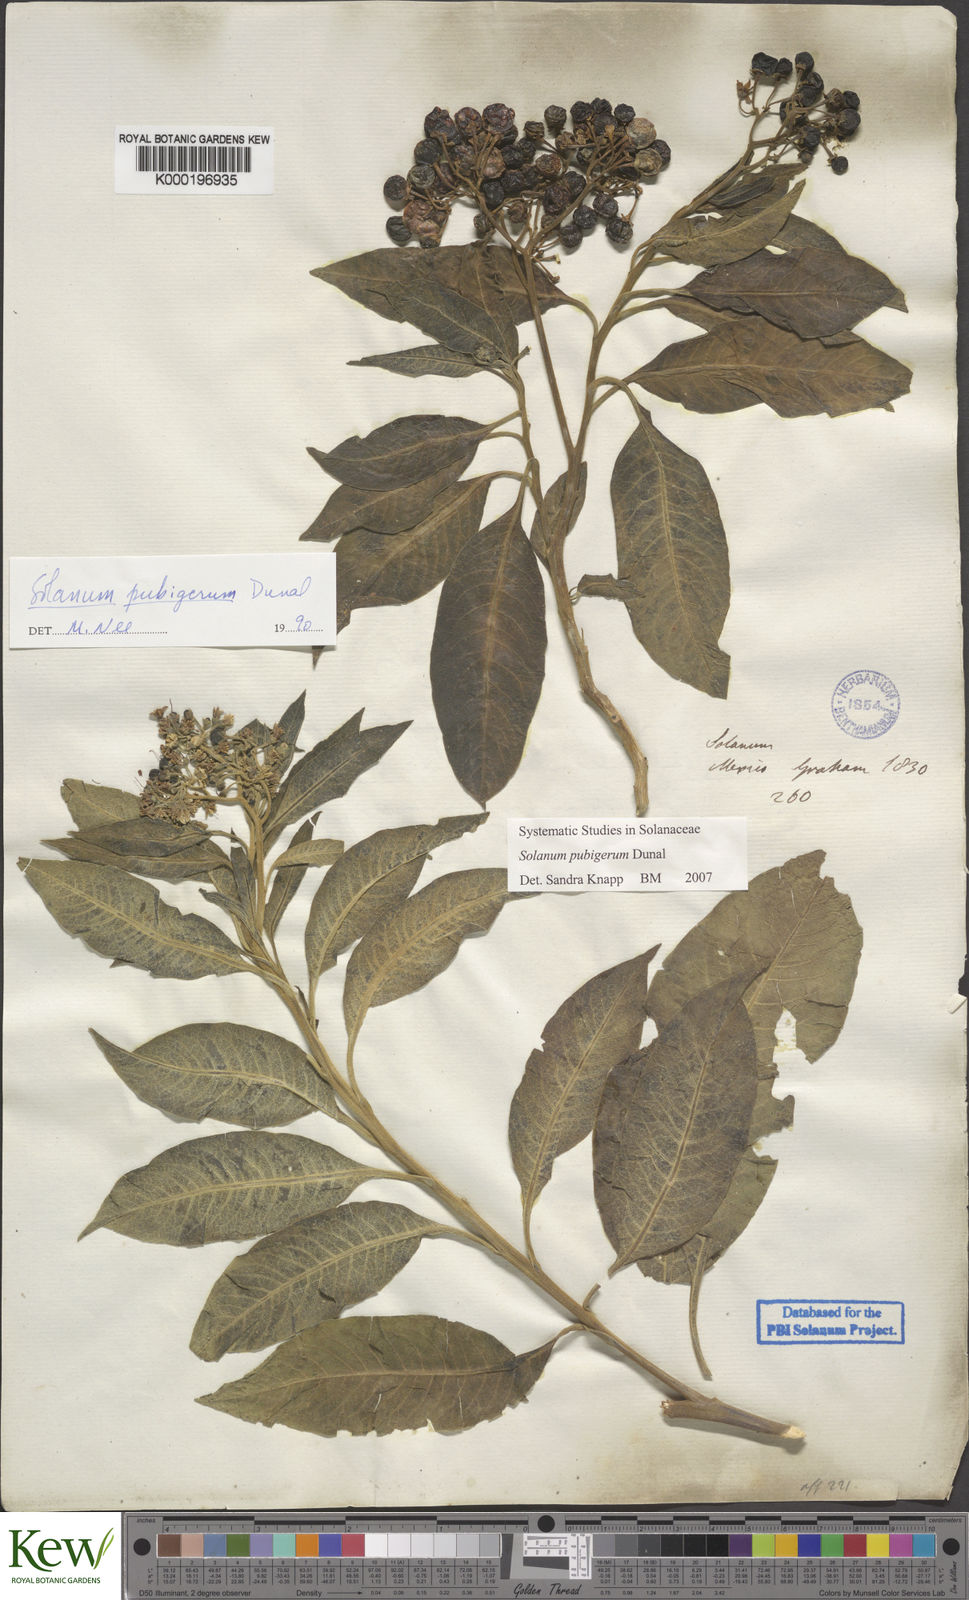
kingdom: Plantae
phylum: Tracheophyta
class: Magnoliopsida
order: Solanales
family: Solanaceae
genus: Solanum
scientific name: Solanum pubigerum
